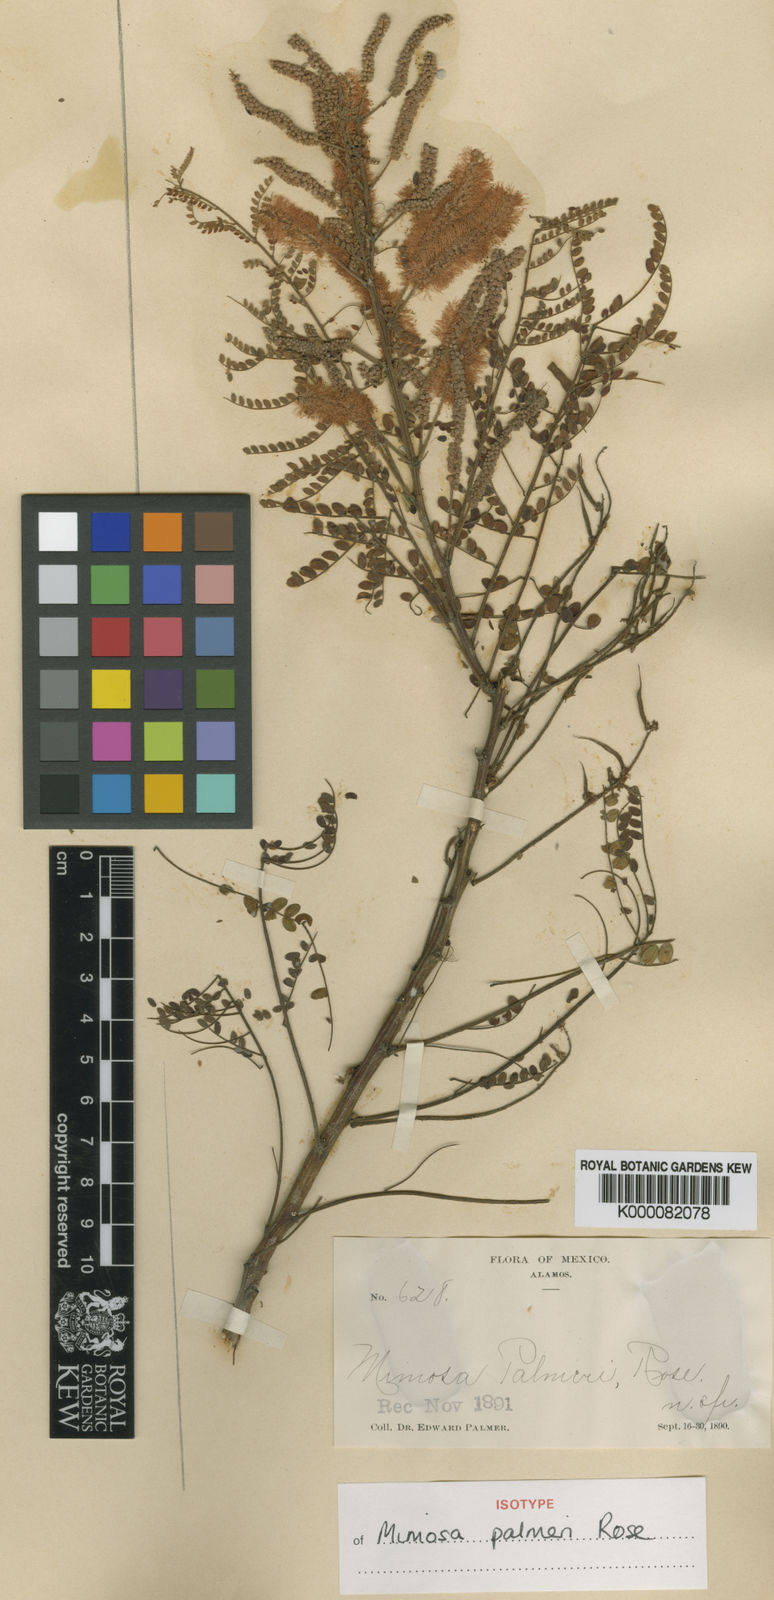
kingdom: Plantae
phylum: Tracheophyta
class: Magnoliopsida
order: Fabales
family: Fabaceae
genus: Mimosa
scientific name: Mimosa palmeri
